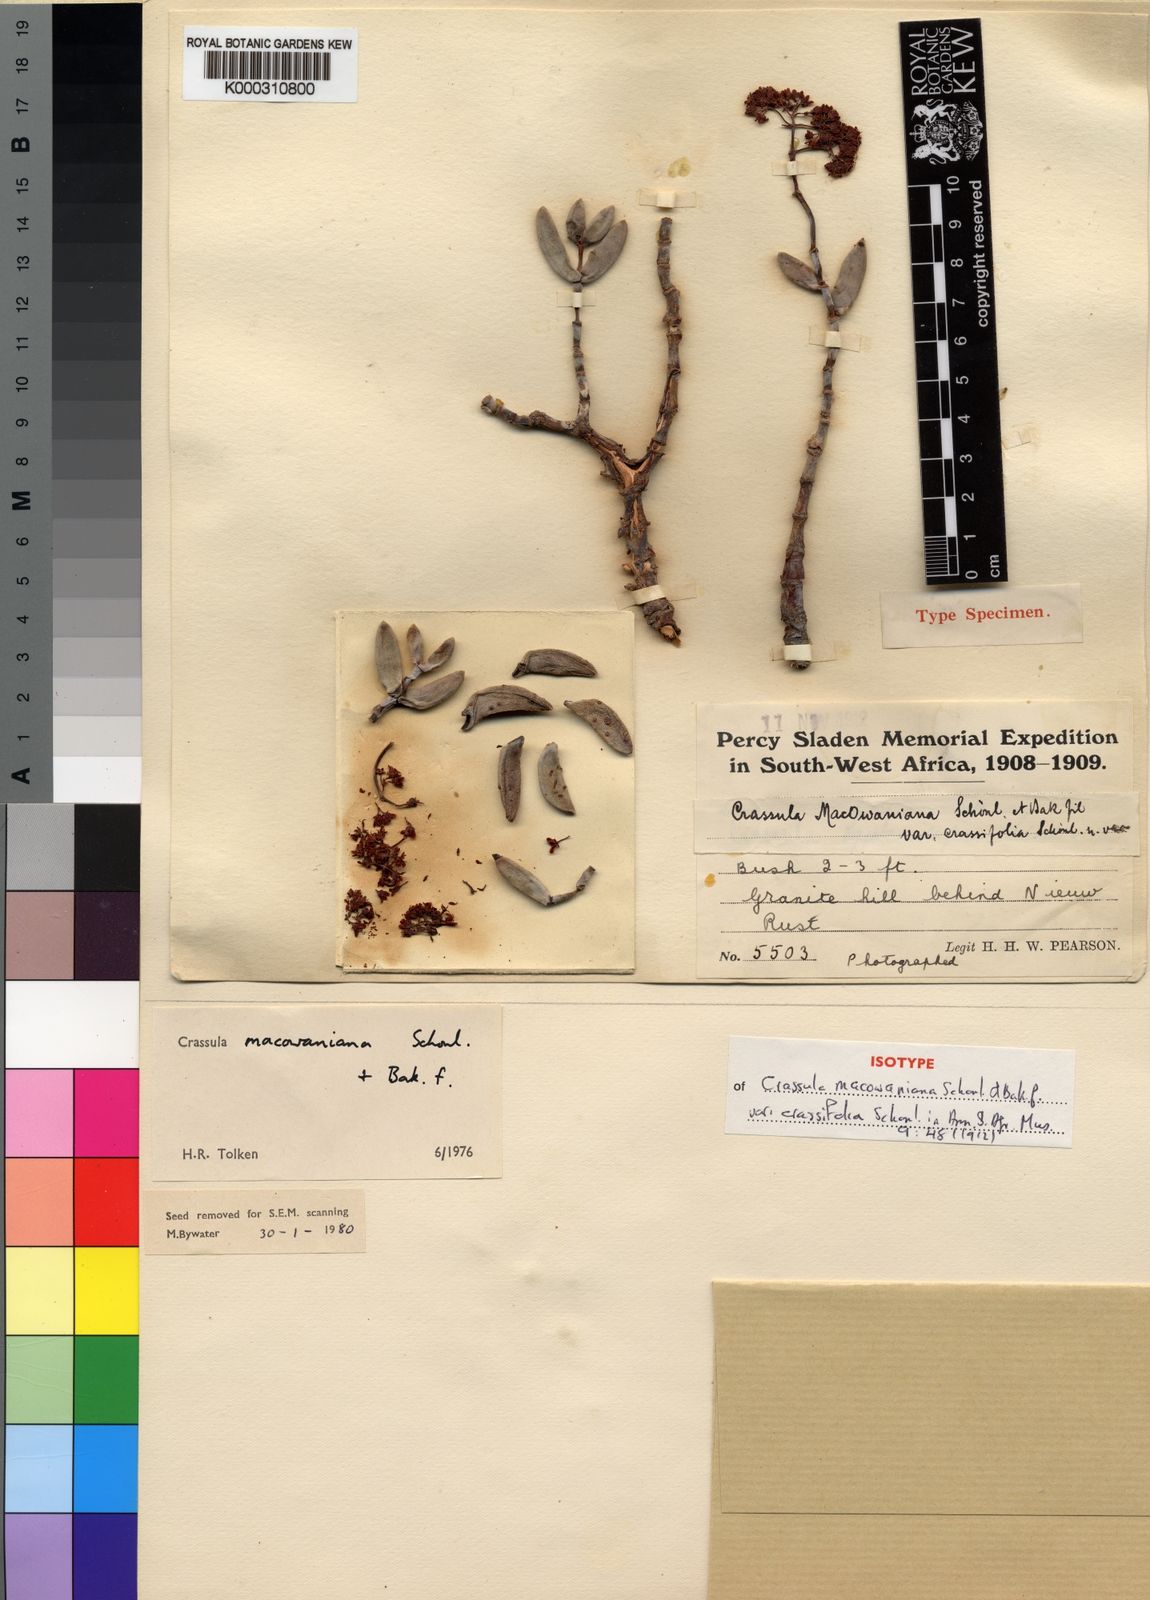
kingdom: Plantae
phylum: Tracheophyta
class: Magnoliopsida
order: Saxifragales
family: Crassulaceae
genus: Crassula
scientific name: Crassula
